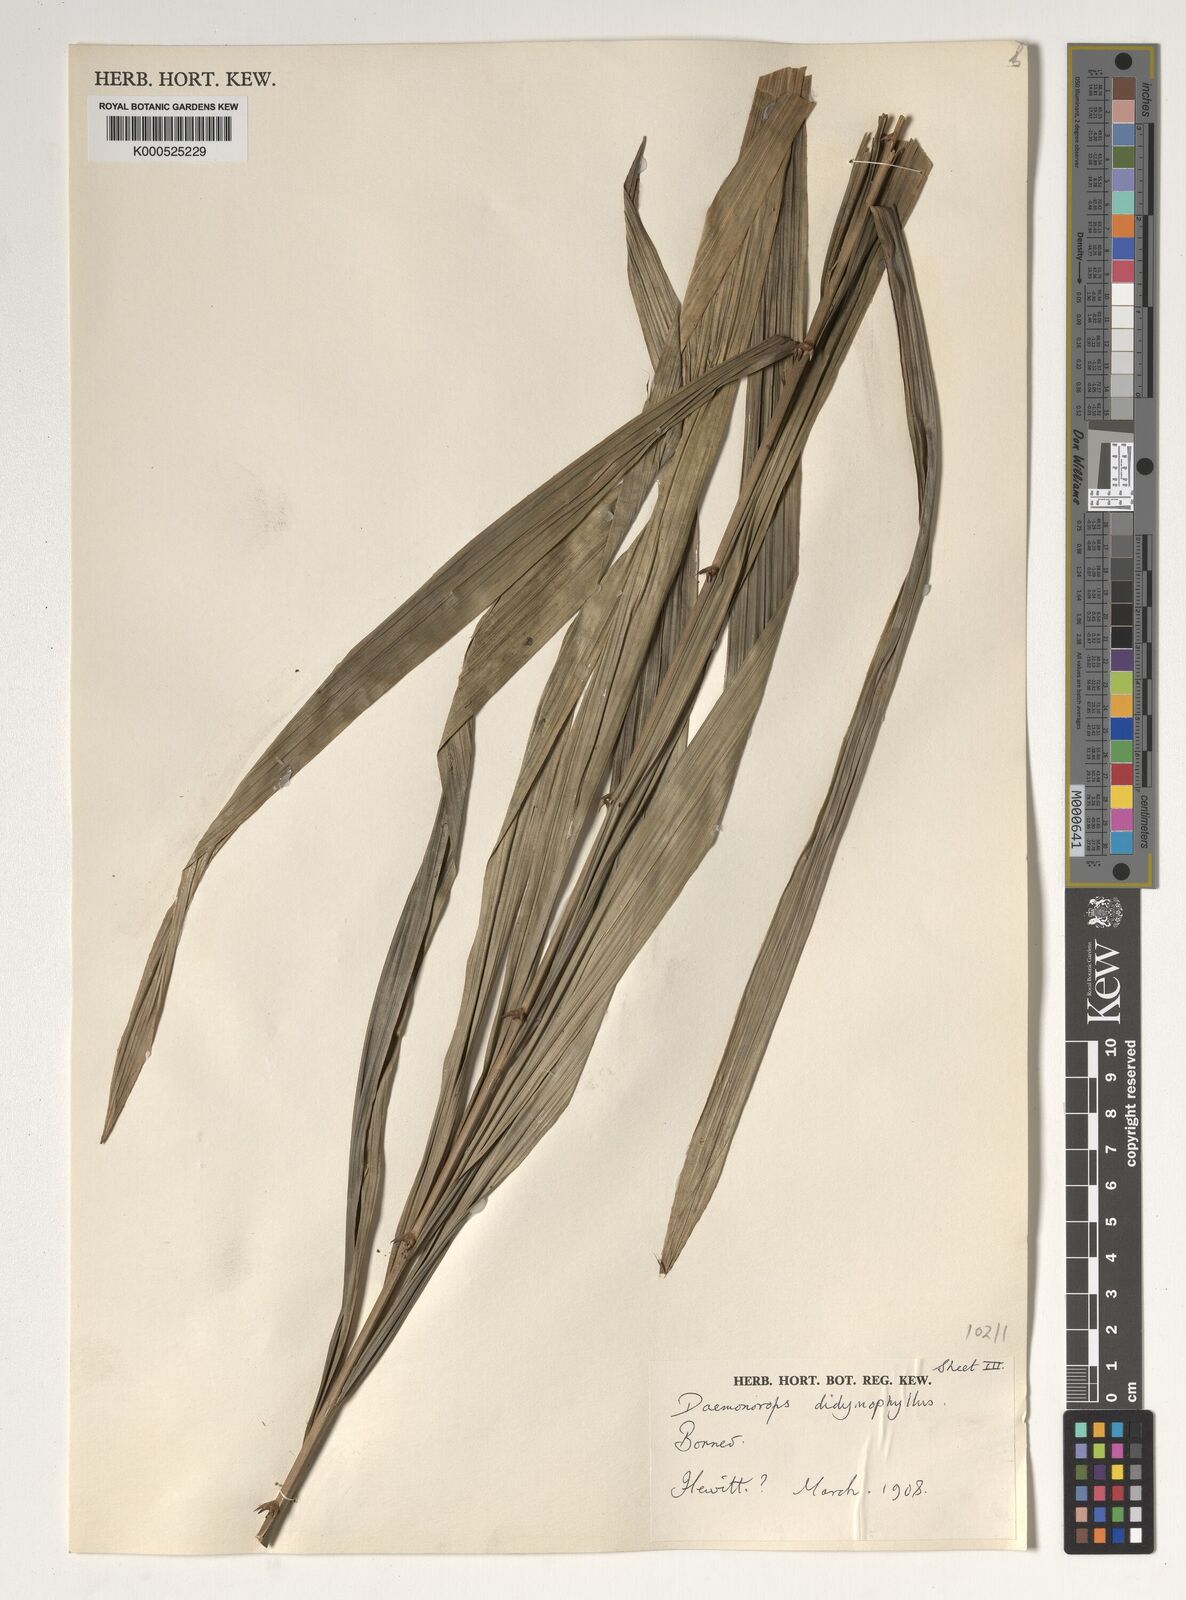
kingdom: Plantae
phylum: Tracheophyta
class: Liliopsida
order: Arecales
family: Arecaceae
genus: Calamus
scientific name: Calamus gracilipes
